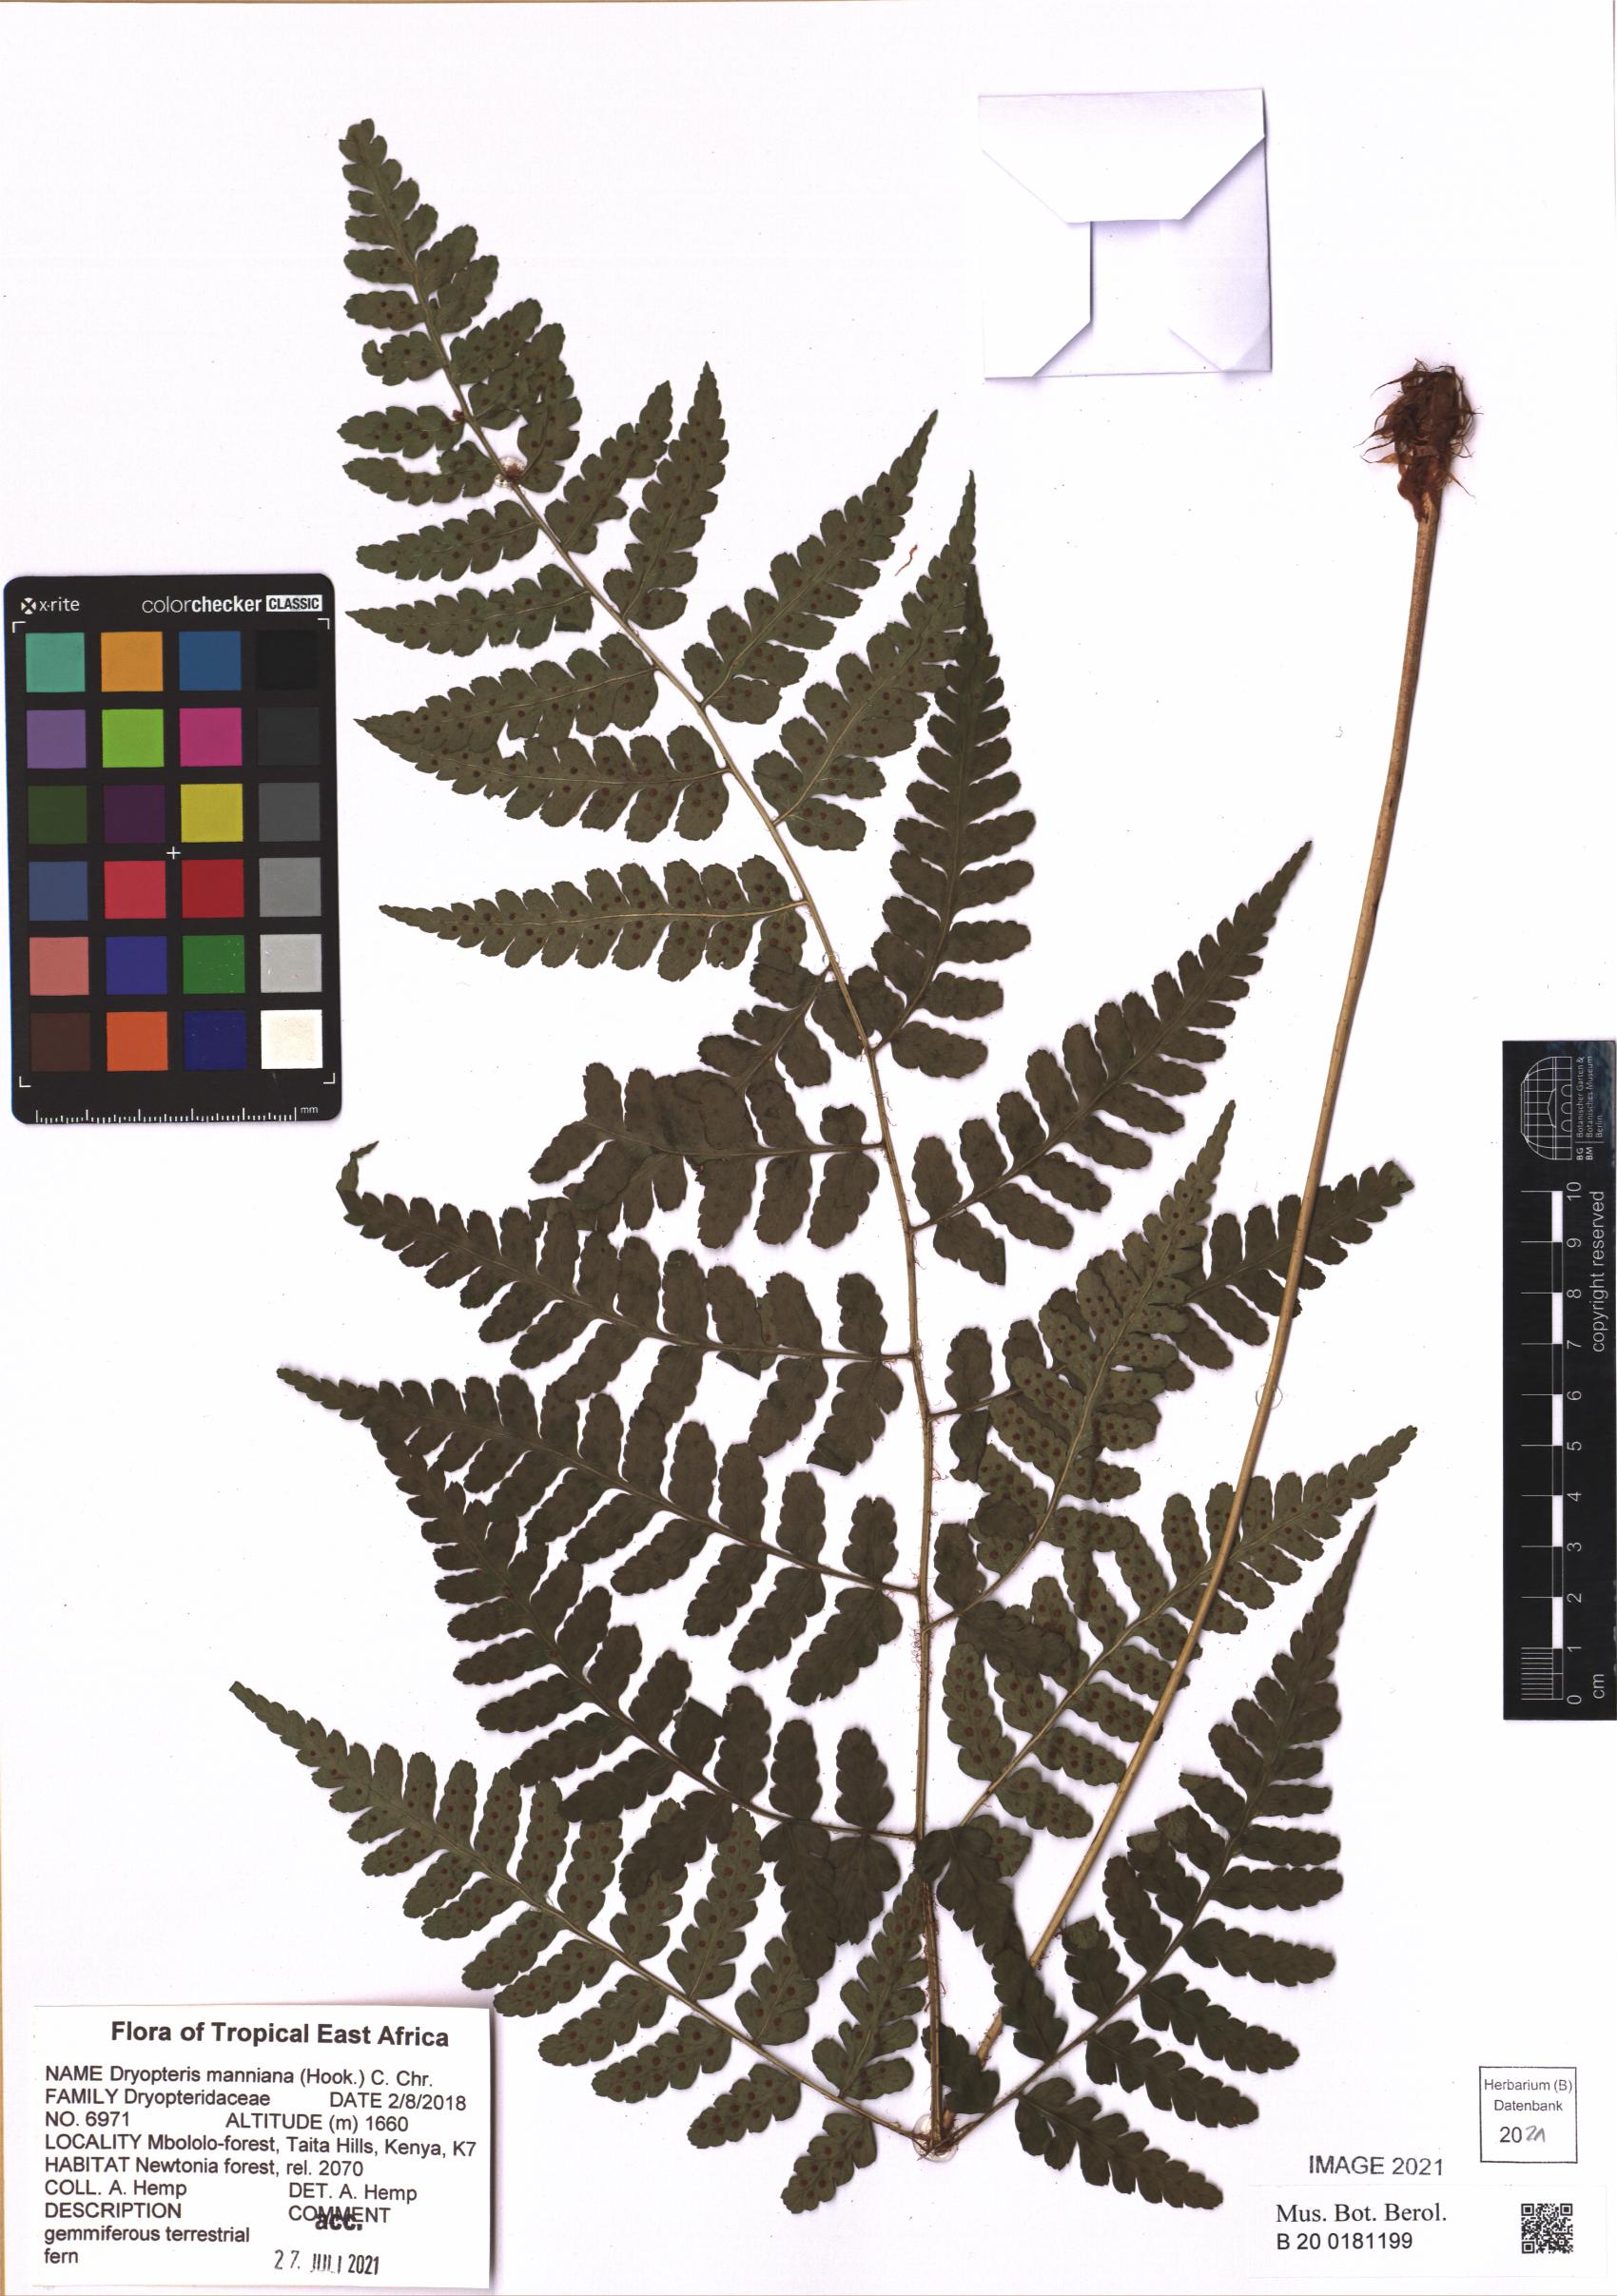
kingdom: Plantae
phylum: Tracheophyta
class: Polypodiopsida
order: Polypodiales
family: Dryopteridaceae
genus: Dryopteris
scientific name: Dryopteris manniana
